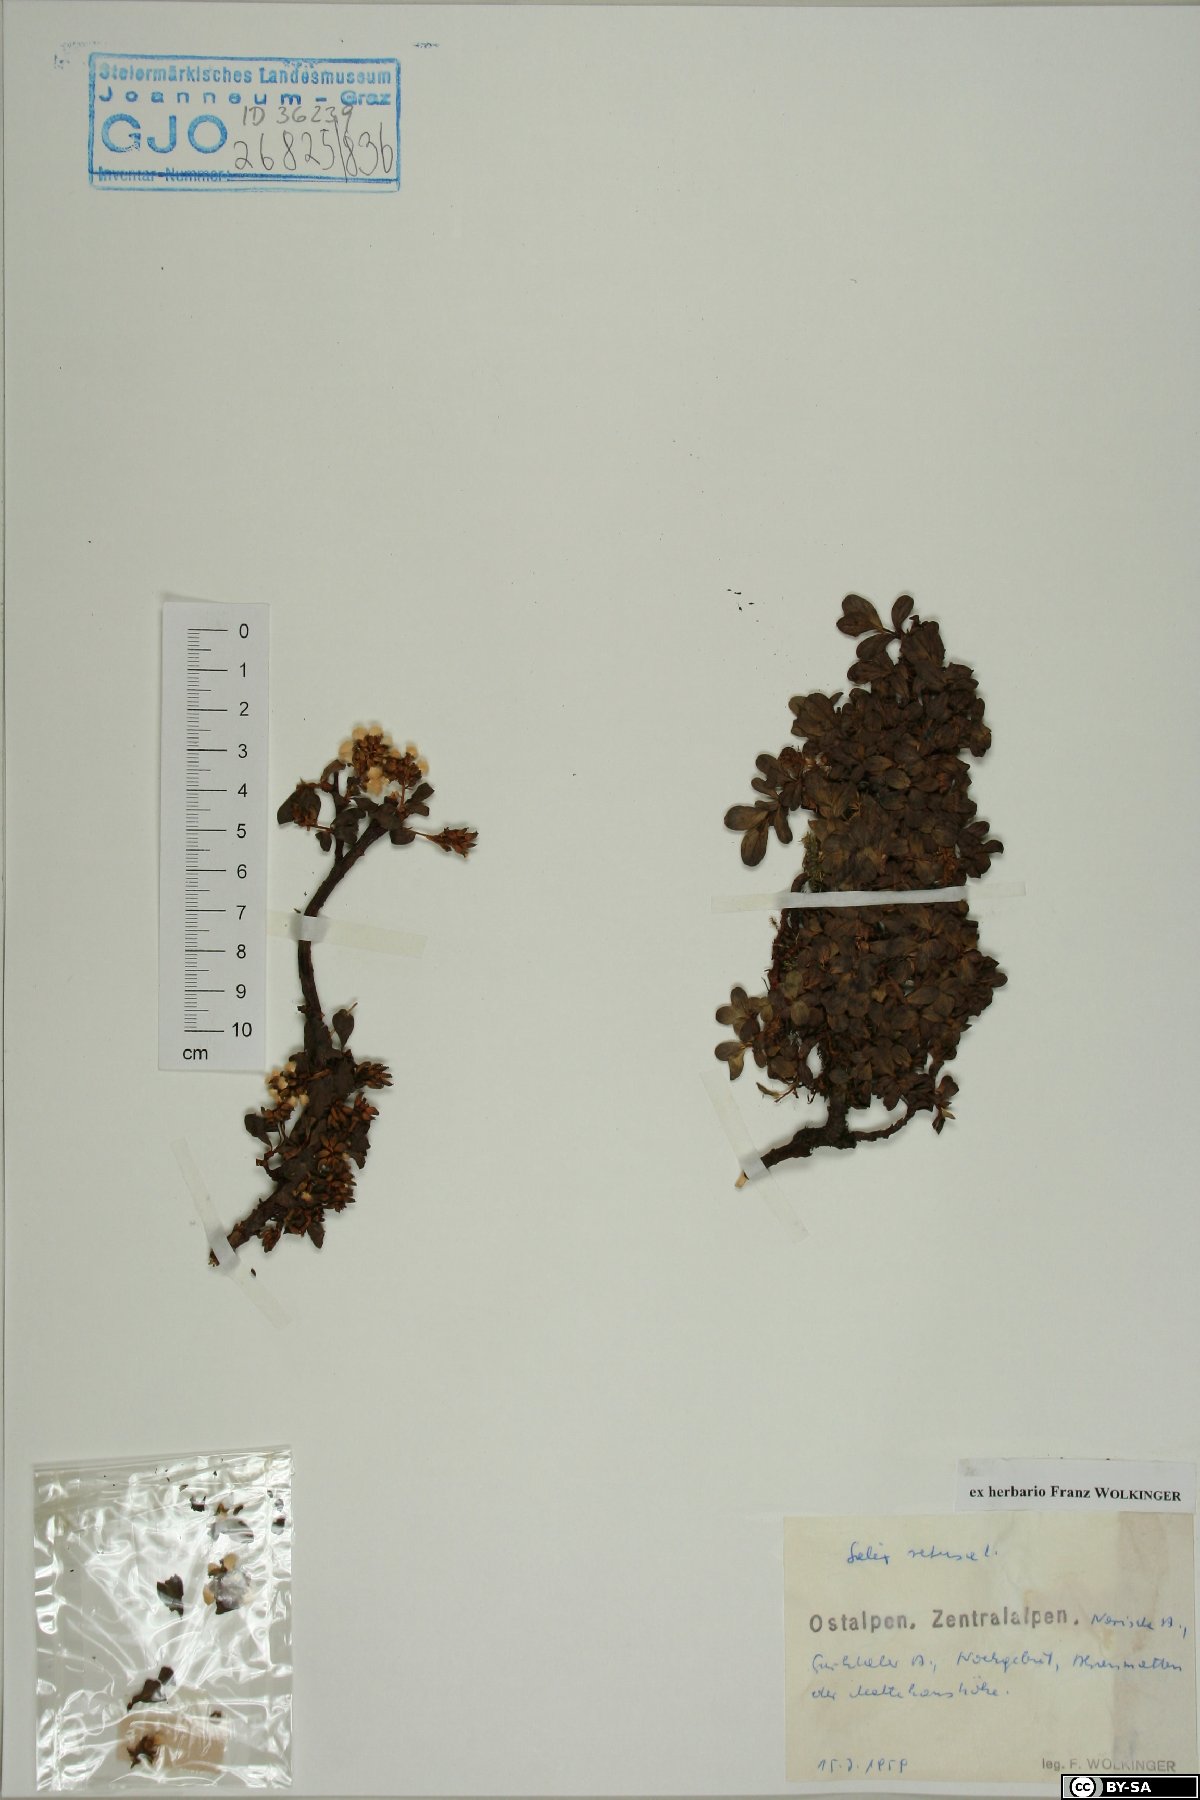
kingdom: Plantae
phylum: Tracheophyta
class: Magnoliopsida
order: Malpighiales
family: Salicaceae
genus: Salix
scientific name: Salix retusa
